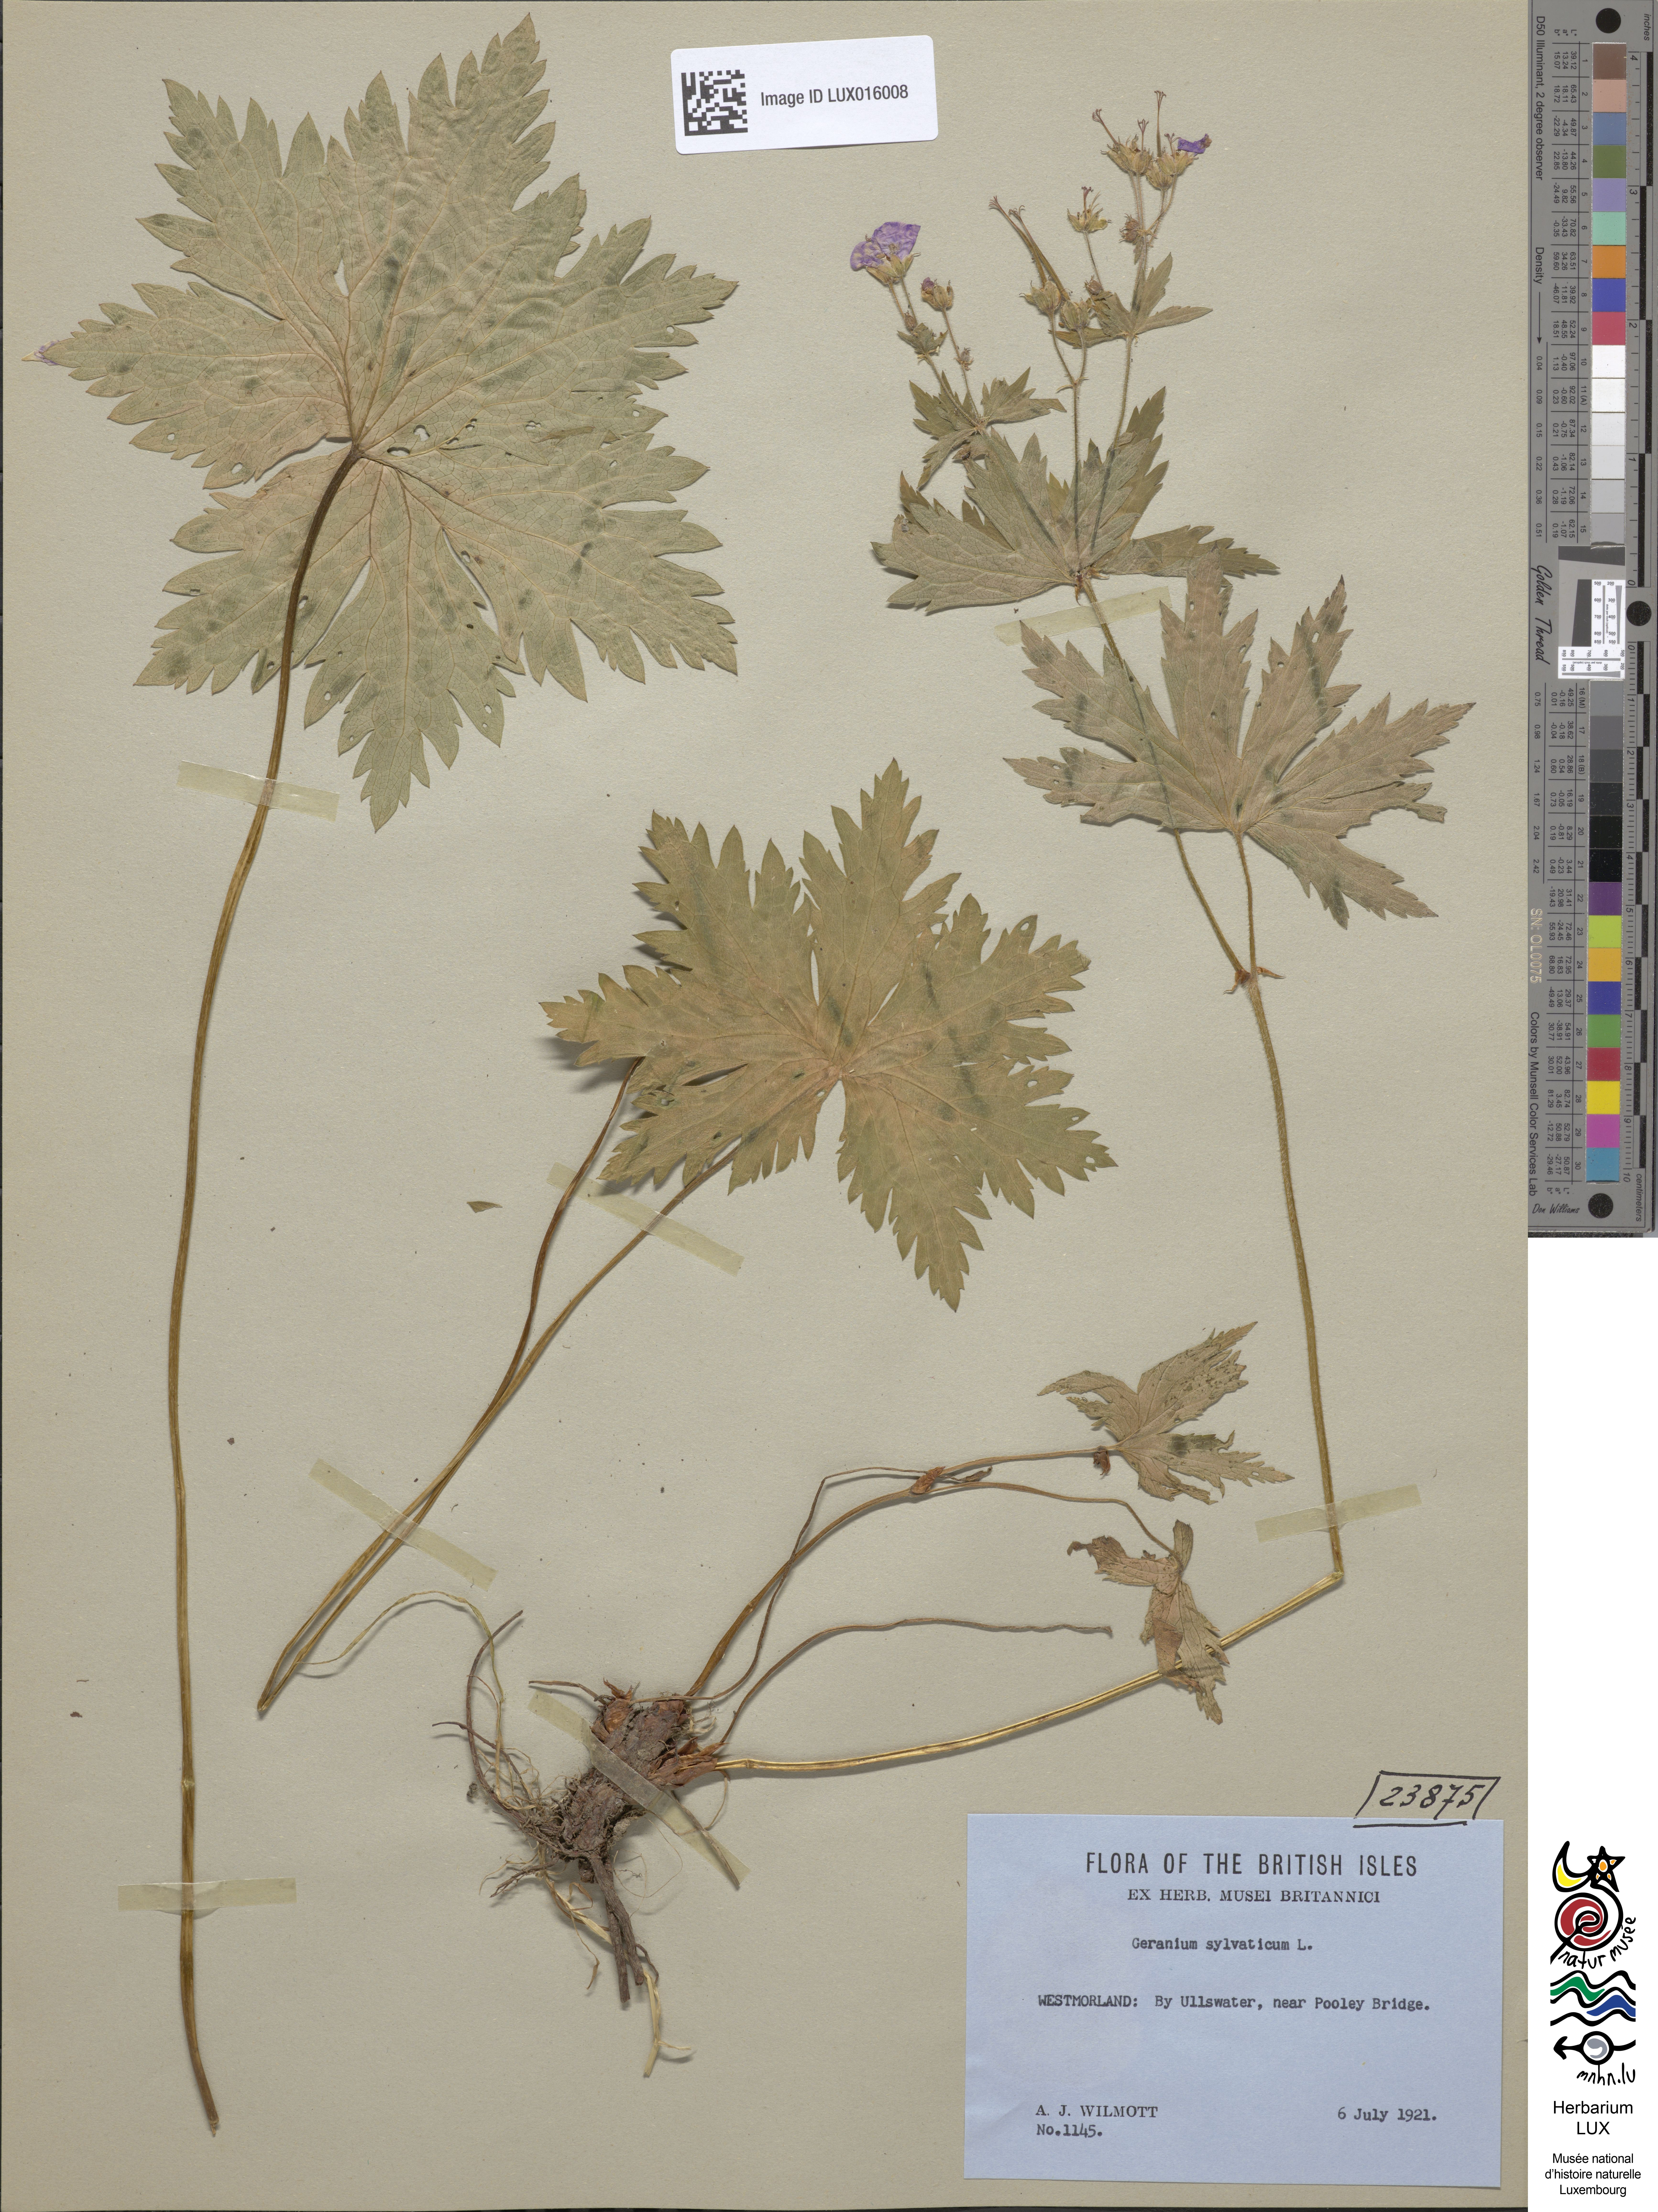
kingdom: Plantae
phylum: Tracheophyta
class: Magnoliopsida
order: Geraniales
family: Geraniaceae
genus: Geranium
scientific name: Geranium sylvaticum
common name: Wood crane's-bill
